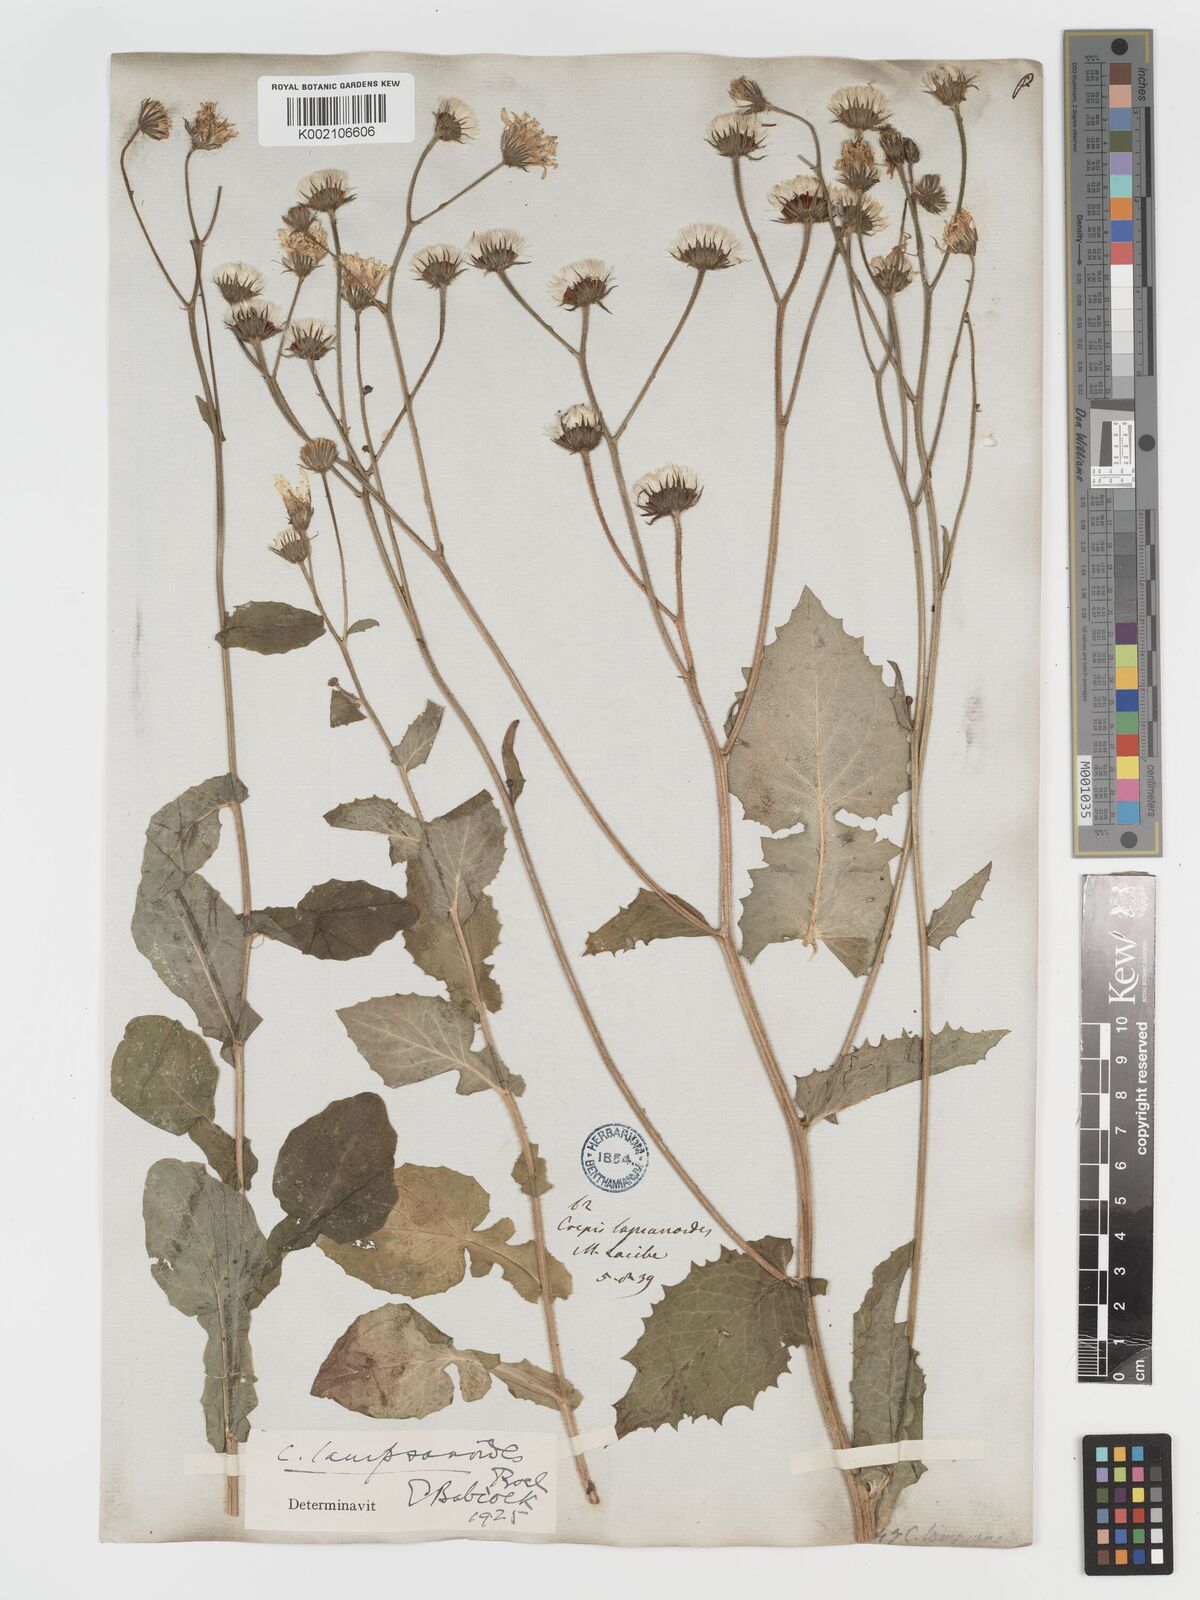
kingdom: Plantae
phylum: Tracheophyta
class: Magnoliopsida
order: Asterales
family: Asteraceae
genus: Crepis
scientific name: Crepis lampsanoides
